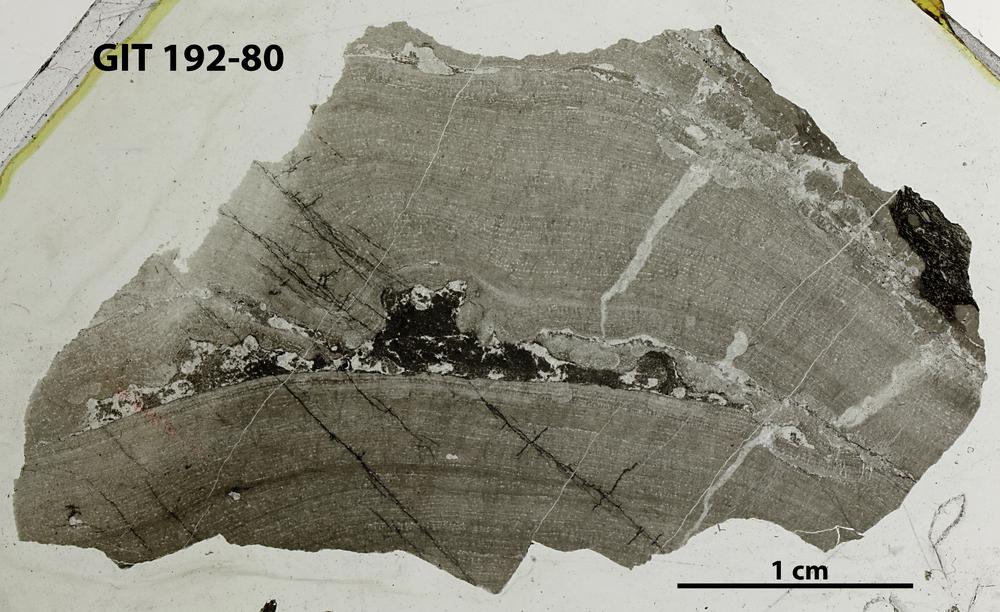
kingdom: Animalia
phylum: Porifera
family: Densastromatidae
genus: Araneosustroma
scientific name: Araneosustroma
